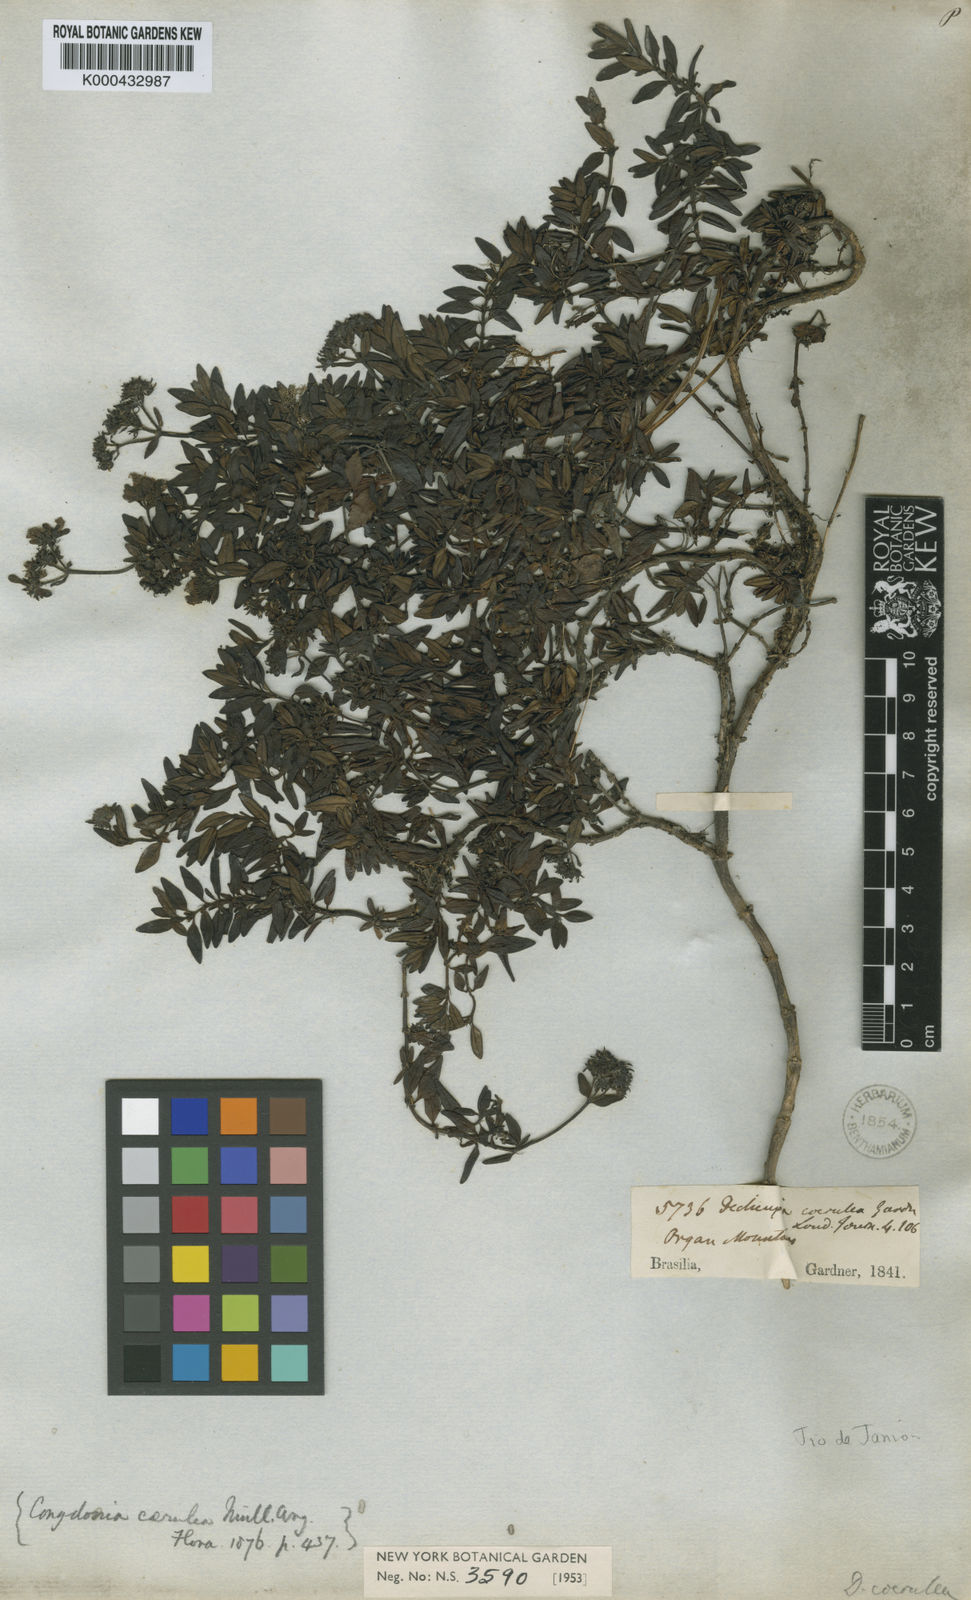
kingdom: Plantae
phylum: Tracheophyta
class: Magnoliopsida
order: Gentianales
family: Rubiaceae
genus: Declieuxia
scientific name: Declieuxia coerulea
